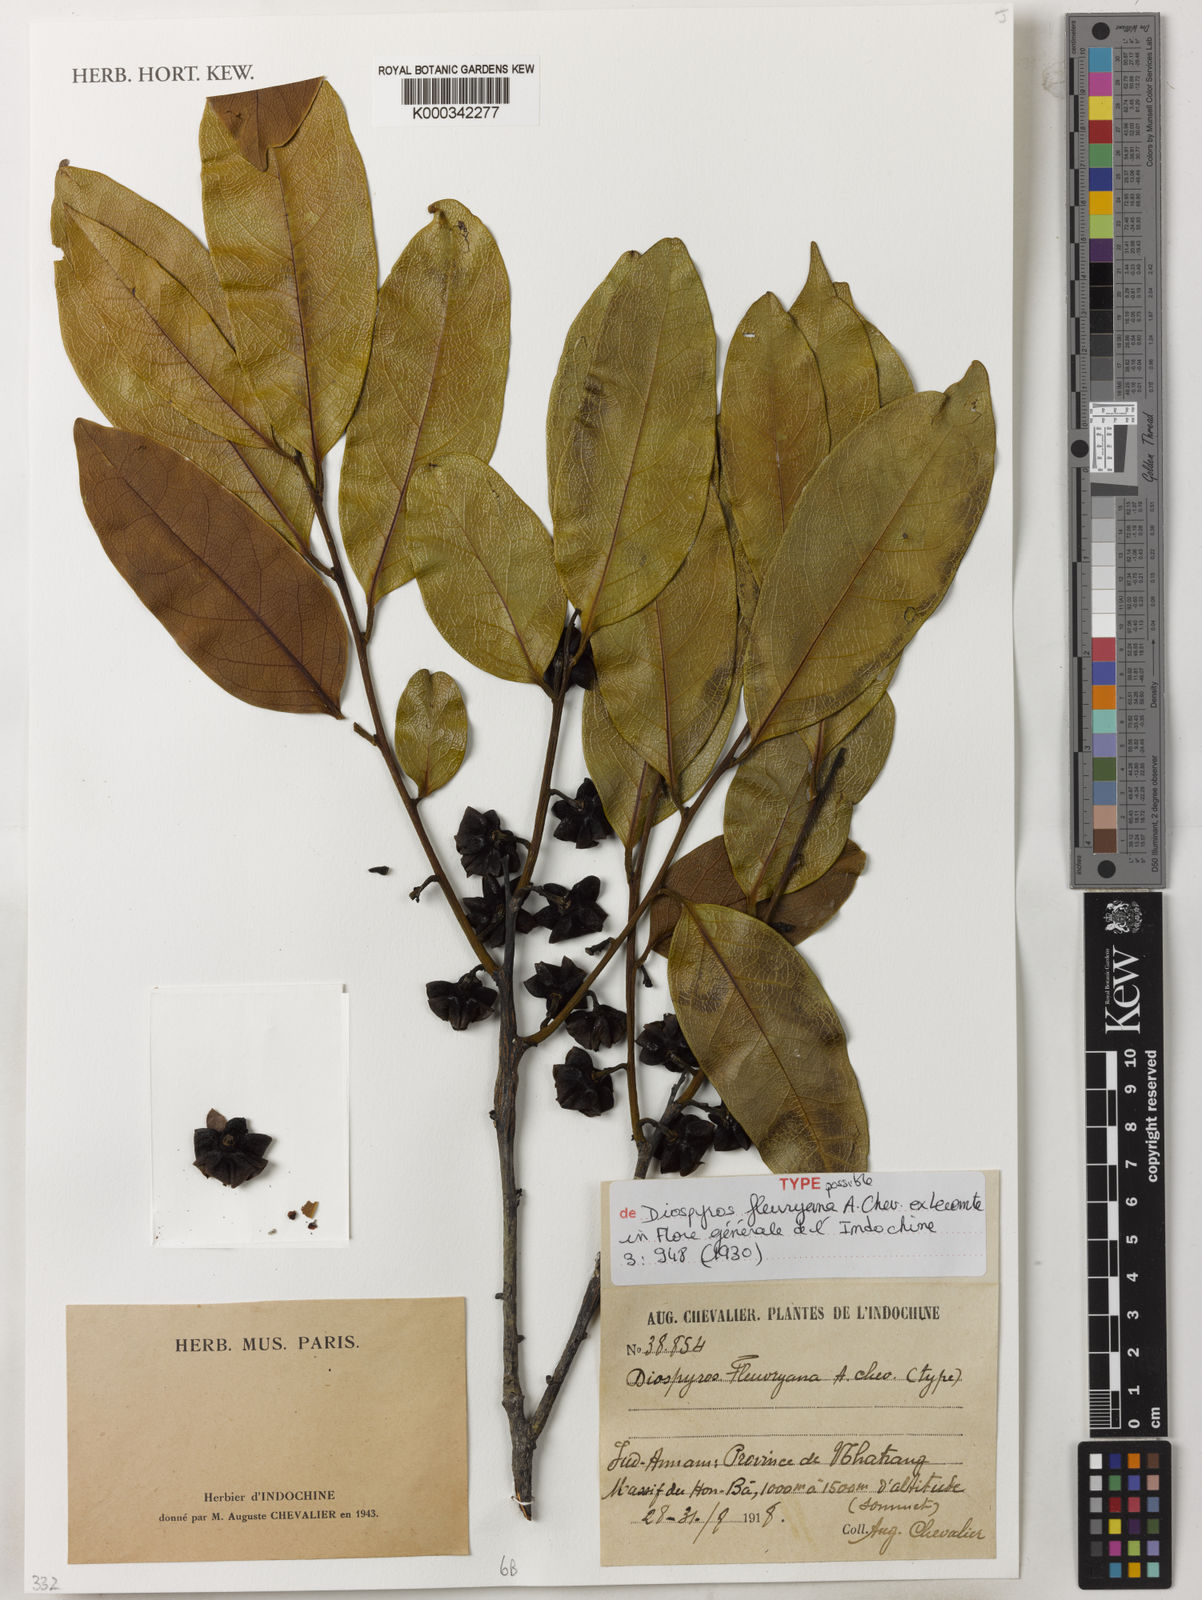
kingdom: Plantae
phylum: Tracheophyta
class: Magnoliopsida
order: Ericales
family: Ebenaceae
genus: Diospyros
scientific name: Diospyros fleuryana
